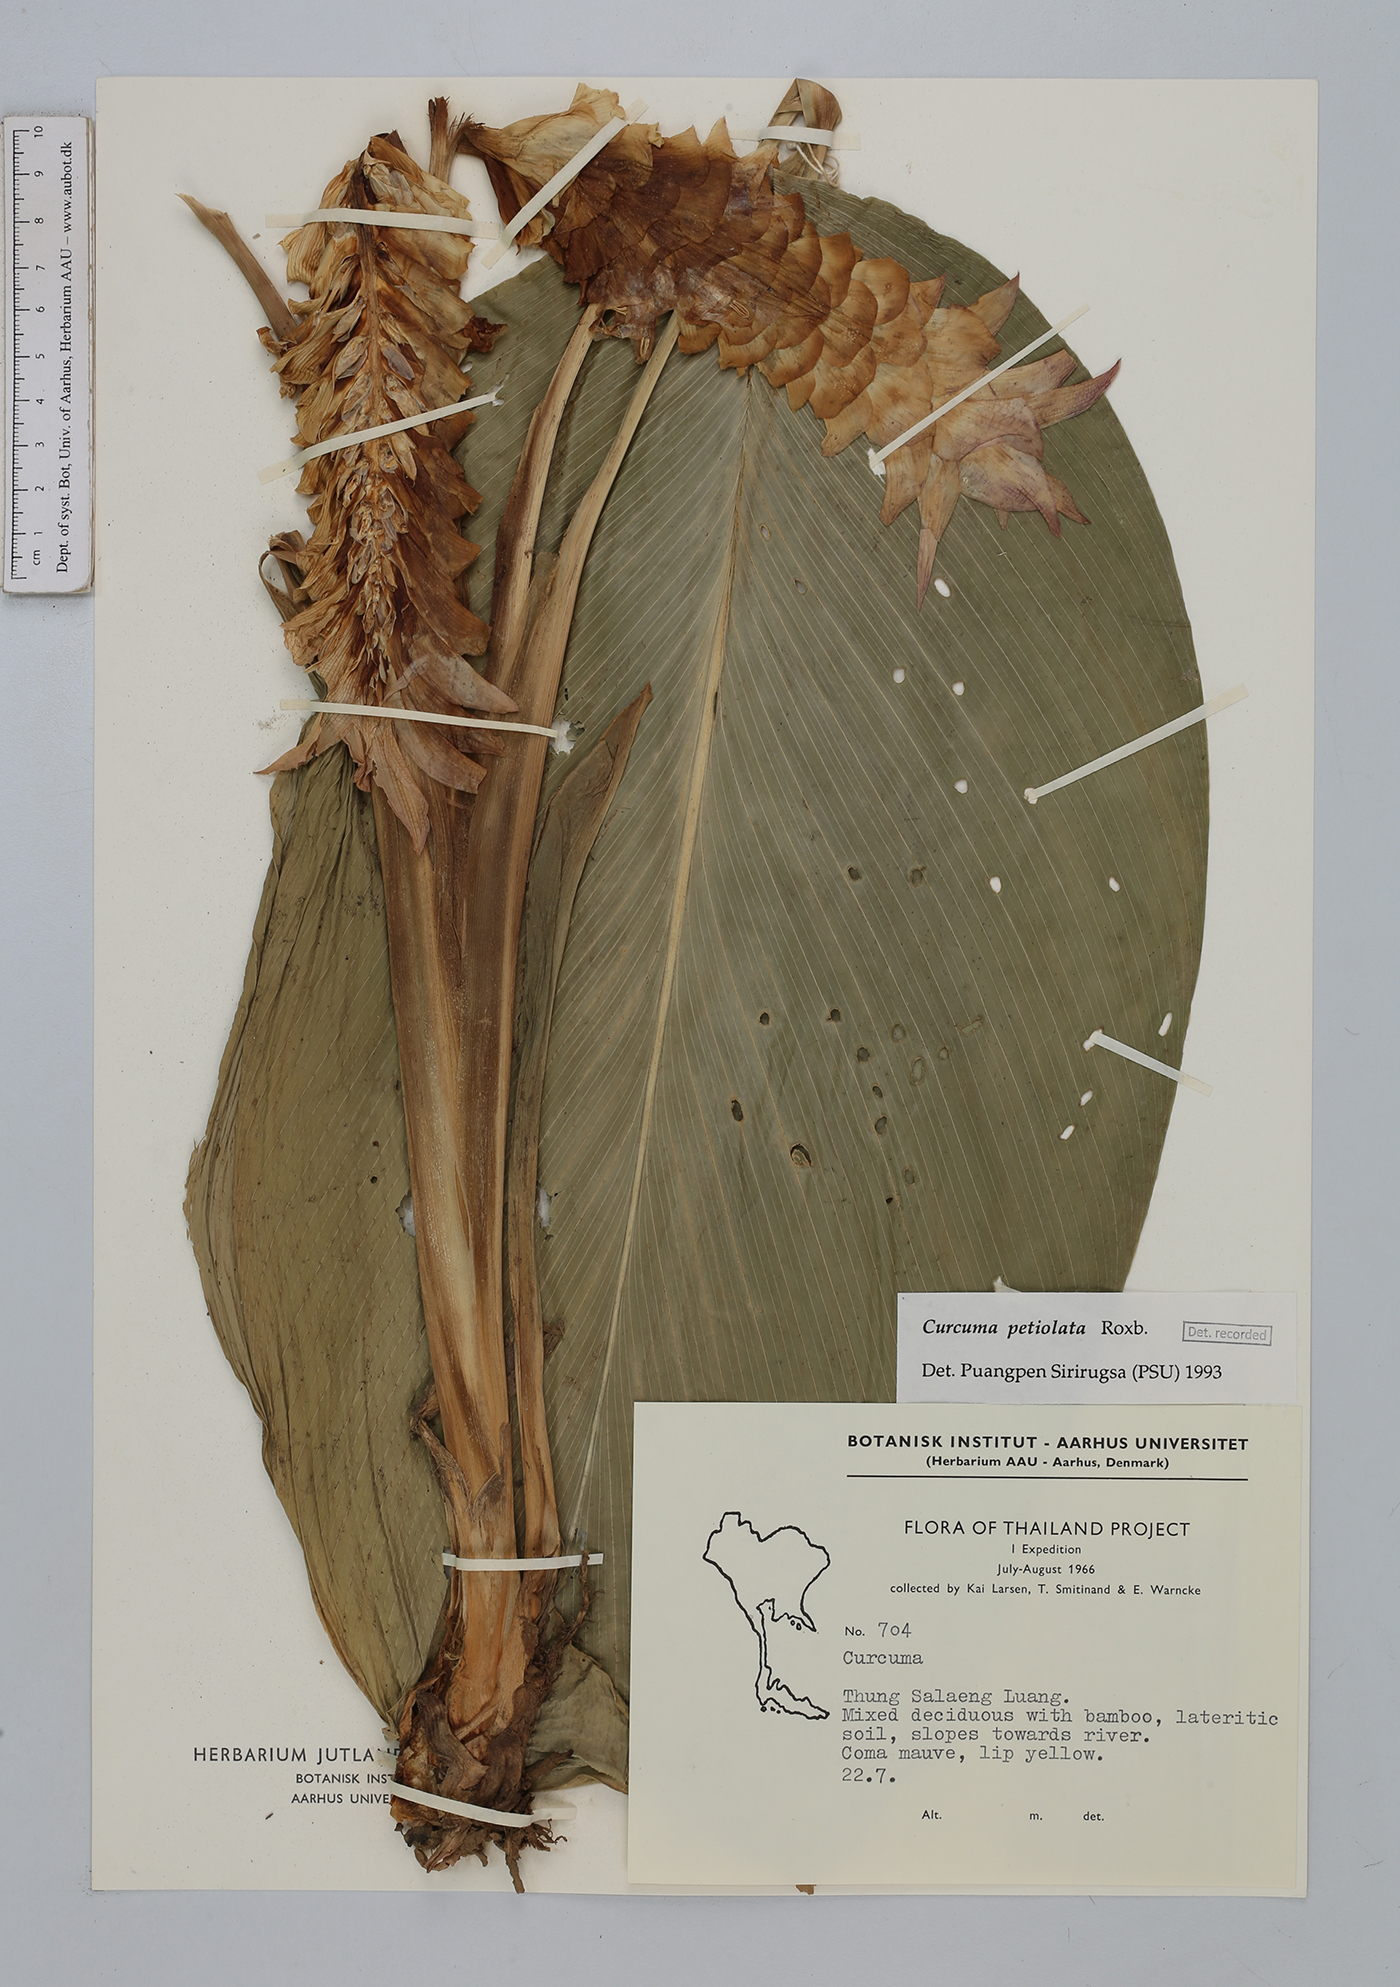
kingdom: Plantae
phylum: Tracheophyta
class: Liliopsida
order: Zingiberales
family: Zingiberaceae
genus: Curcuma
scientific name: Curcuma petiolata
